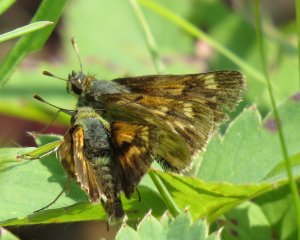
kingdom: Animalia
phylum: Arthropoda
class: Insecta
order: Lepidoptera
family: Hesperiidae
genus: Polites
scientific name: Polites
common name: Long Dash Skipper
